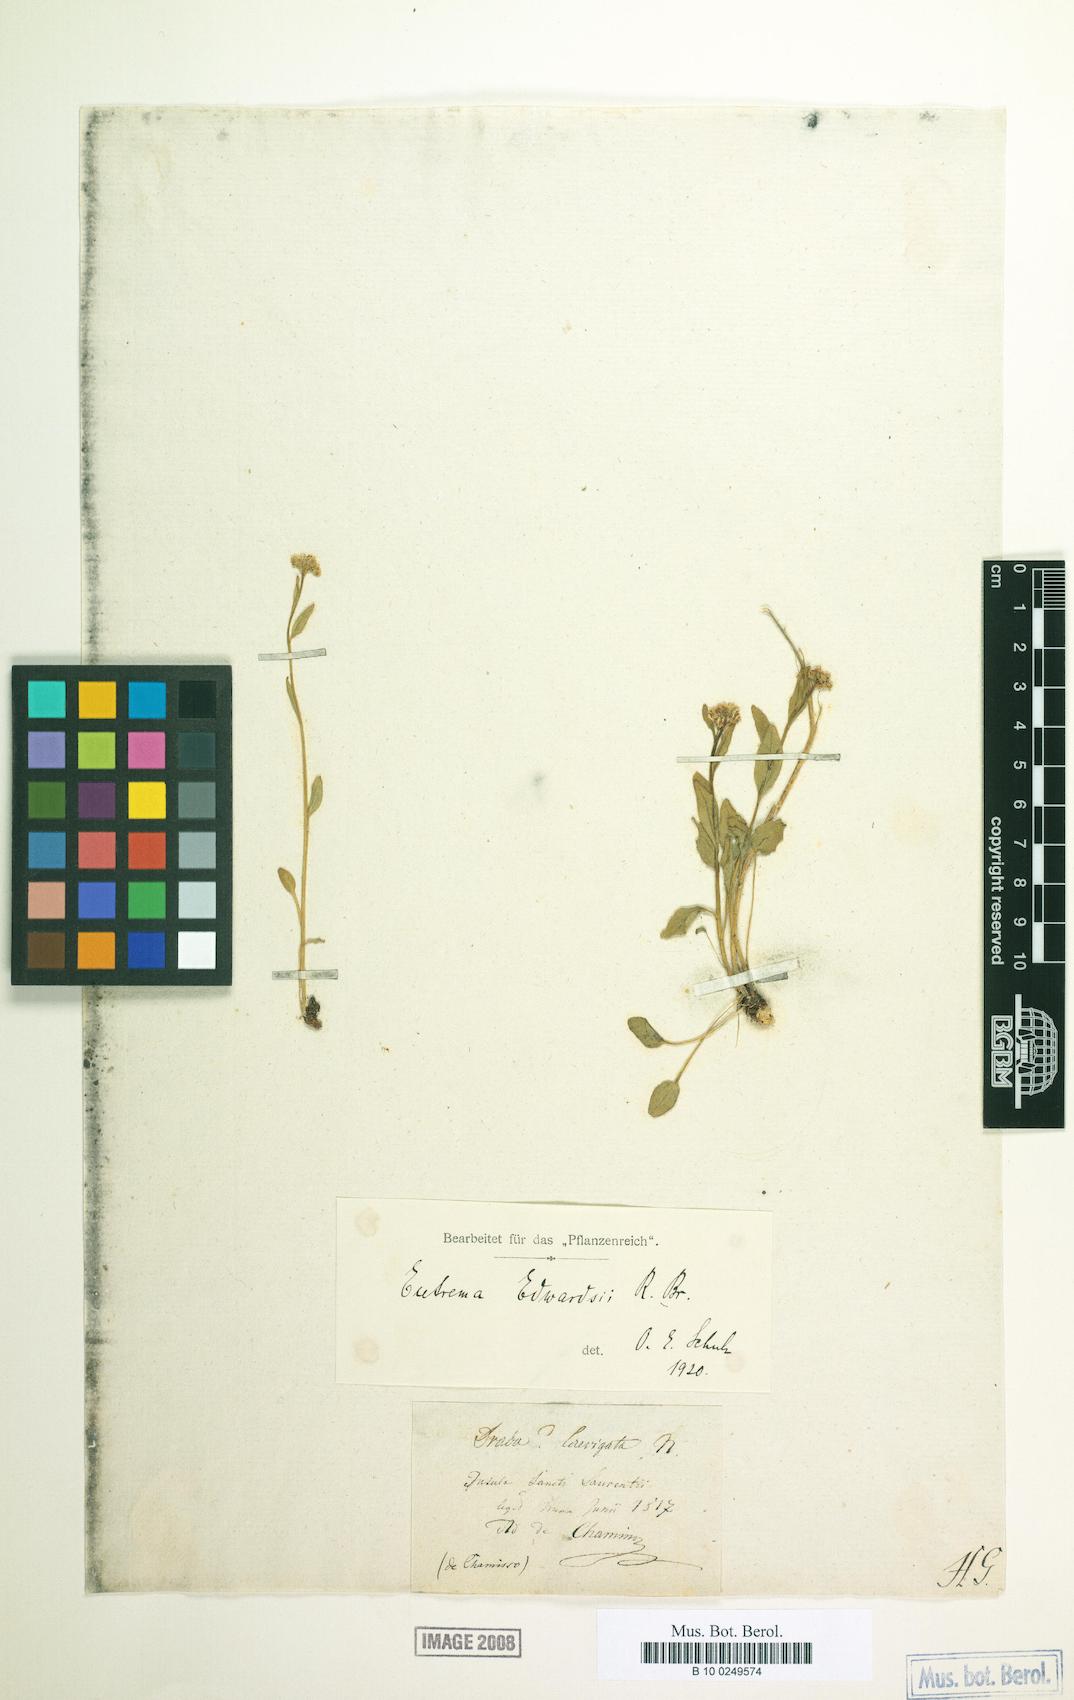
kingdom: Plantae
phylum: Tracheophyta
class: Magnoliopsida
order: Brassicales
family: Brassicaceae
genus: Eutrema
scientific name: Eutrema edwardsii
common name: Penland alpine fen mustard
